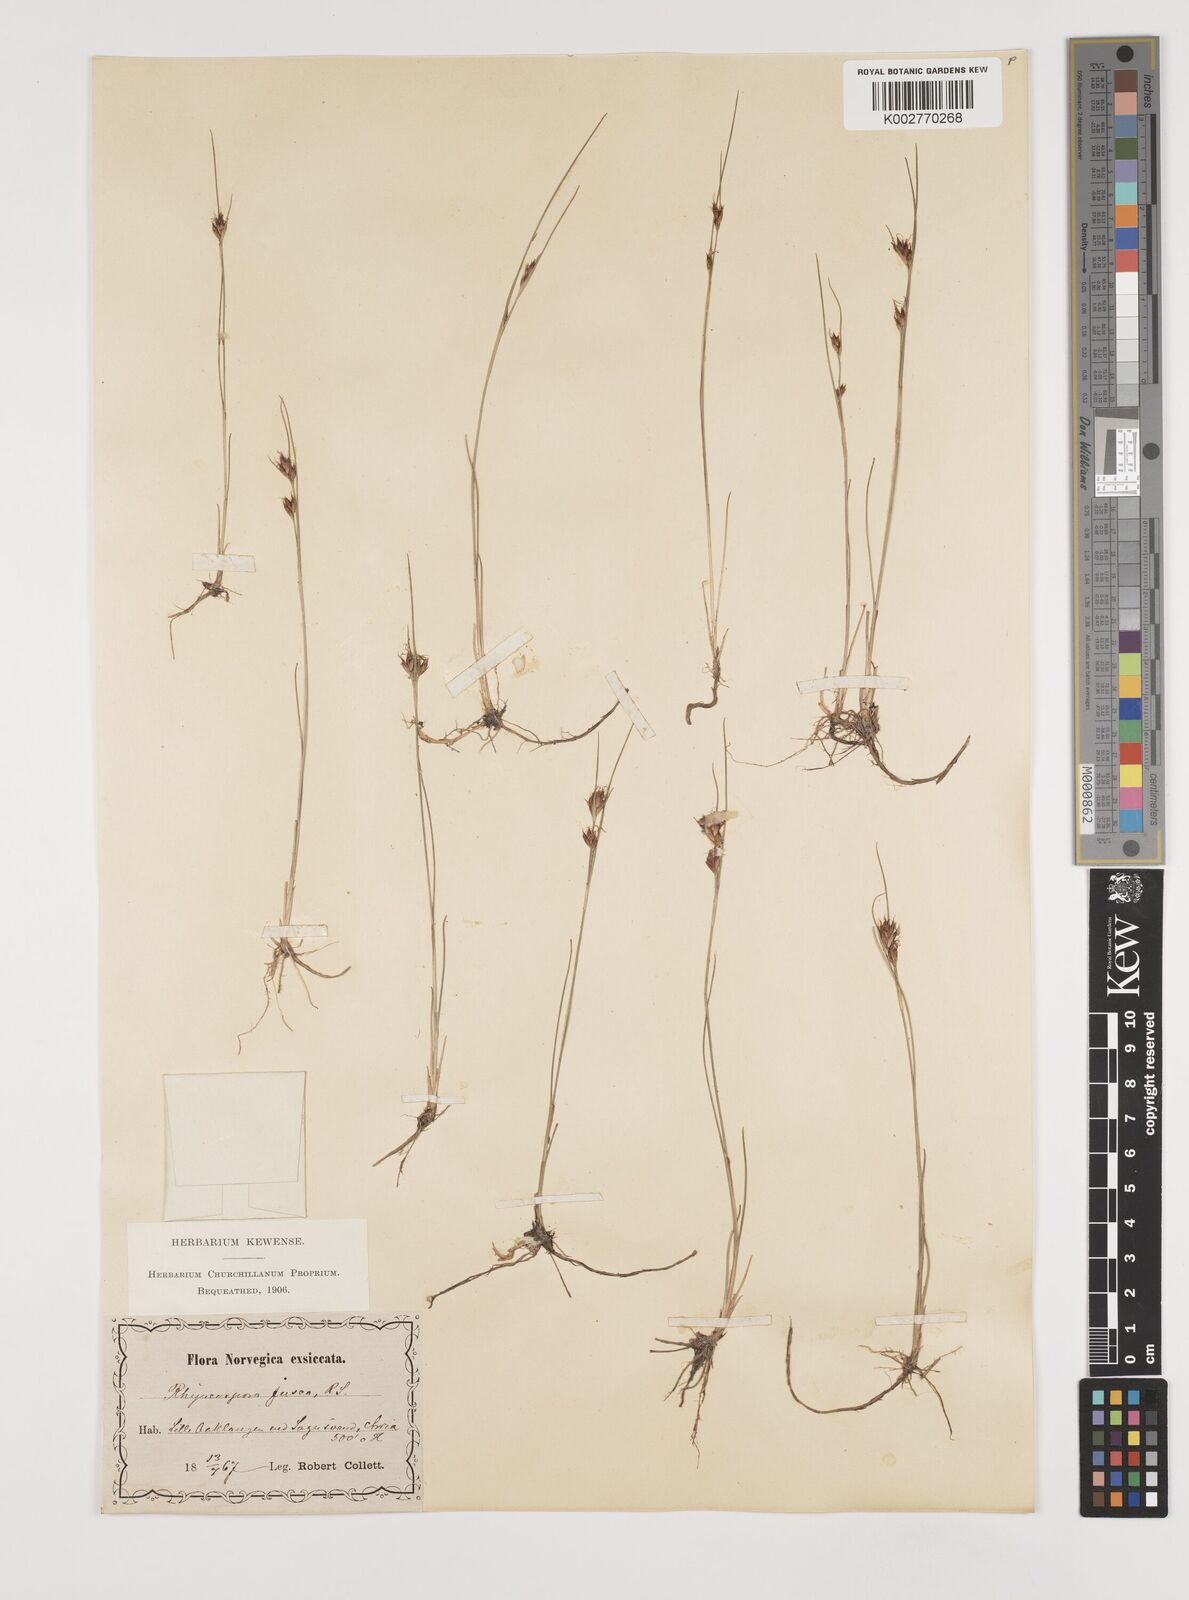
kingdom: Plantae
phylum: Tracheophyta
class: Liliopsida
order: Poales
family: Cyperaceae
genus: Rhynchospora
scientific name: Rhynchospora fusca
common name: Brown beak-sedge
